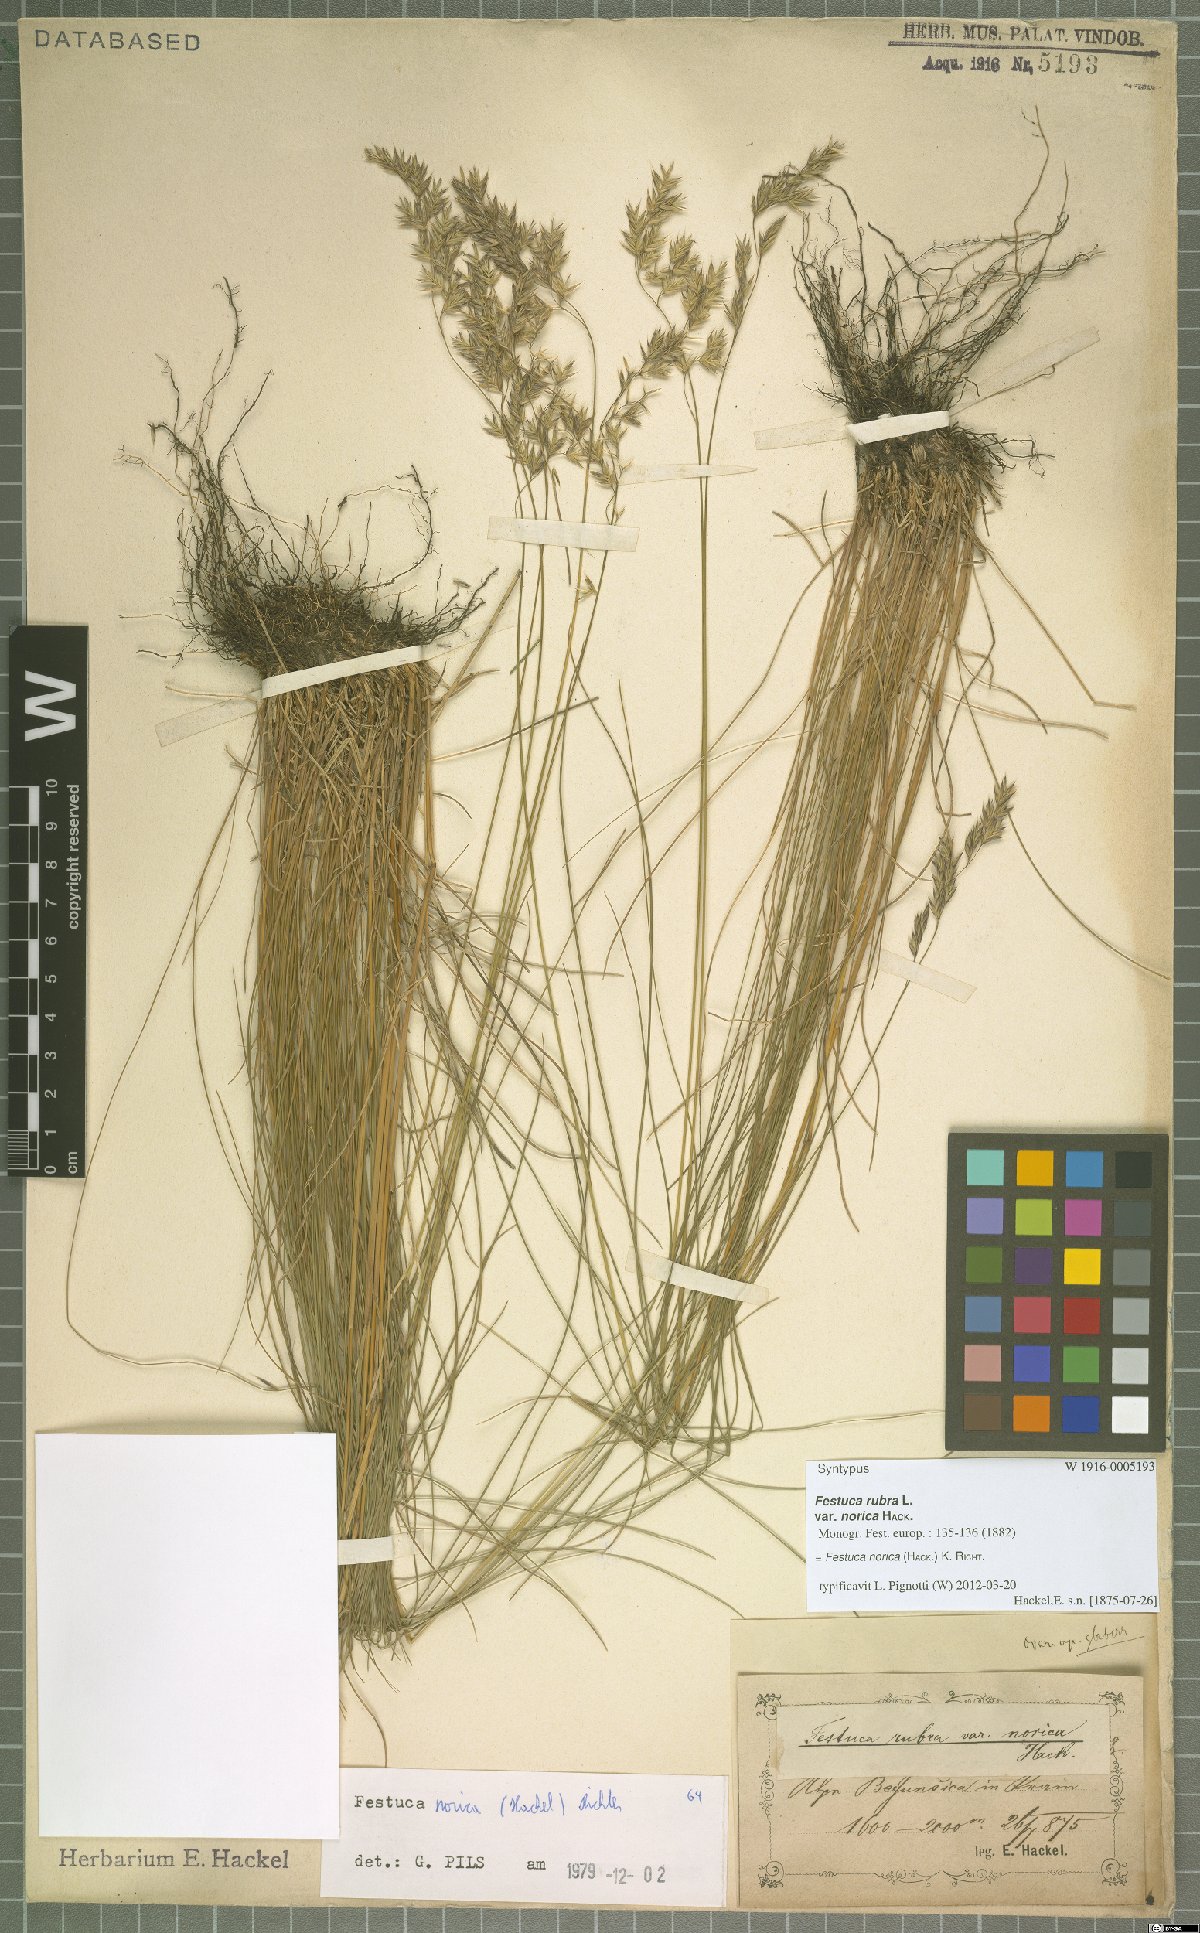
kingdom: Plantae
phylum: Tracheophyta
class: Liliopsida
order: Poales
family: Poaceae
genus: Festuca
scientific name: Festuca norica
